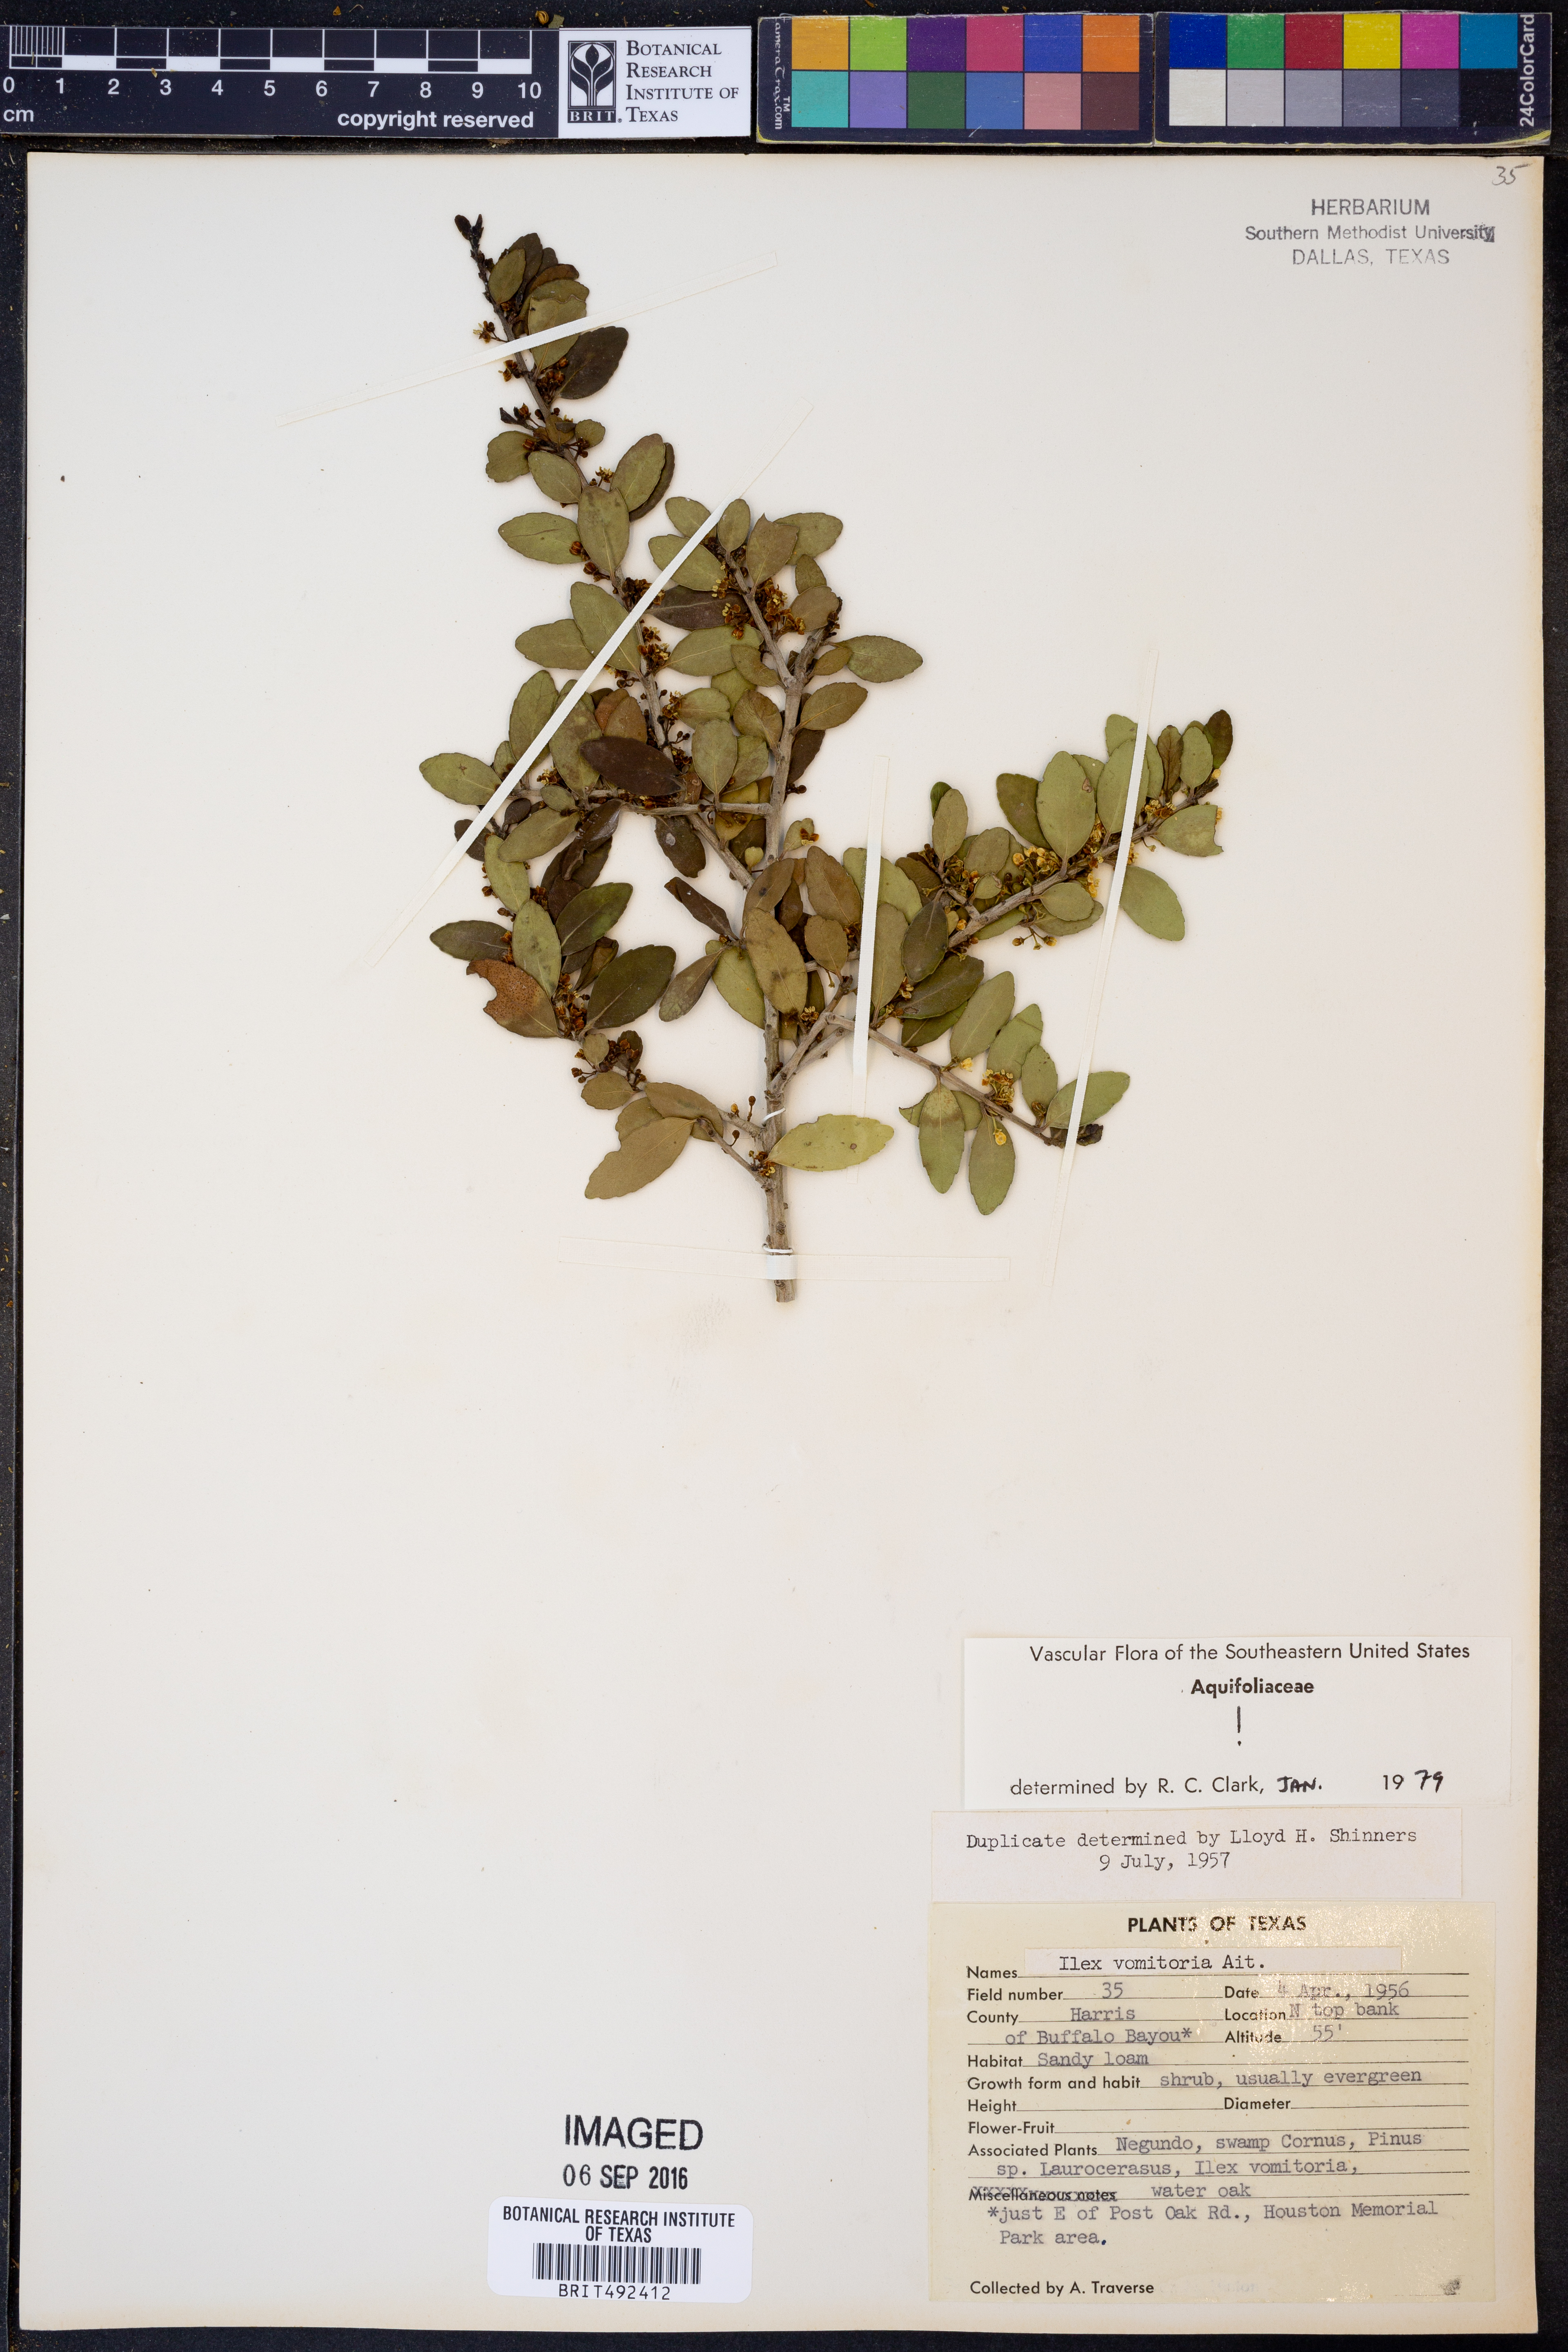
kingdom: Plantae
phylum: Tracheophyta
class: Magnoliopsida
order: Aquifoliales
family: Aquifoliaceae
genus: Ilex
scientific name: Ilex vomitoria
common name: Yaupon holly
